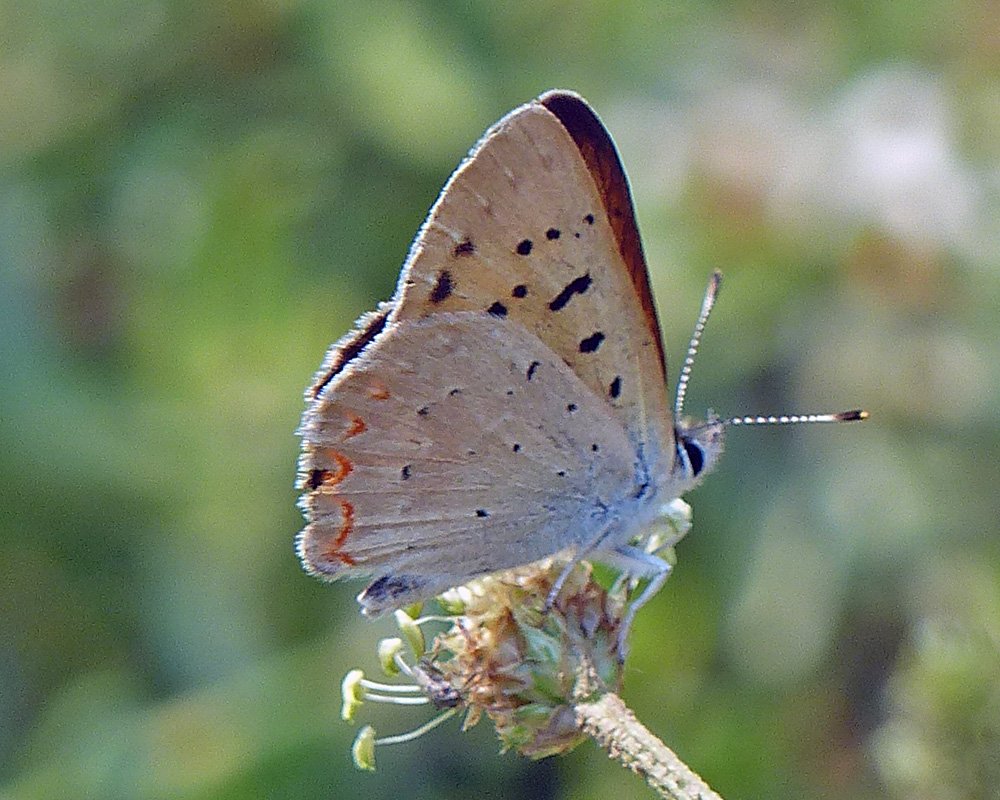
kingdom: Animalia
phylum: Arthropoda
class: Insecta
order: Lepidoptera
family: Sesiidae
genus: Sesia
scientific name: Sesia Lycaena helloides
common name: Purplish Copper
